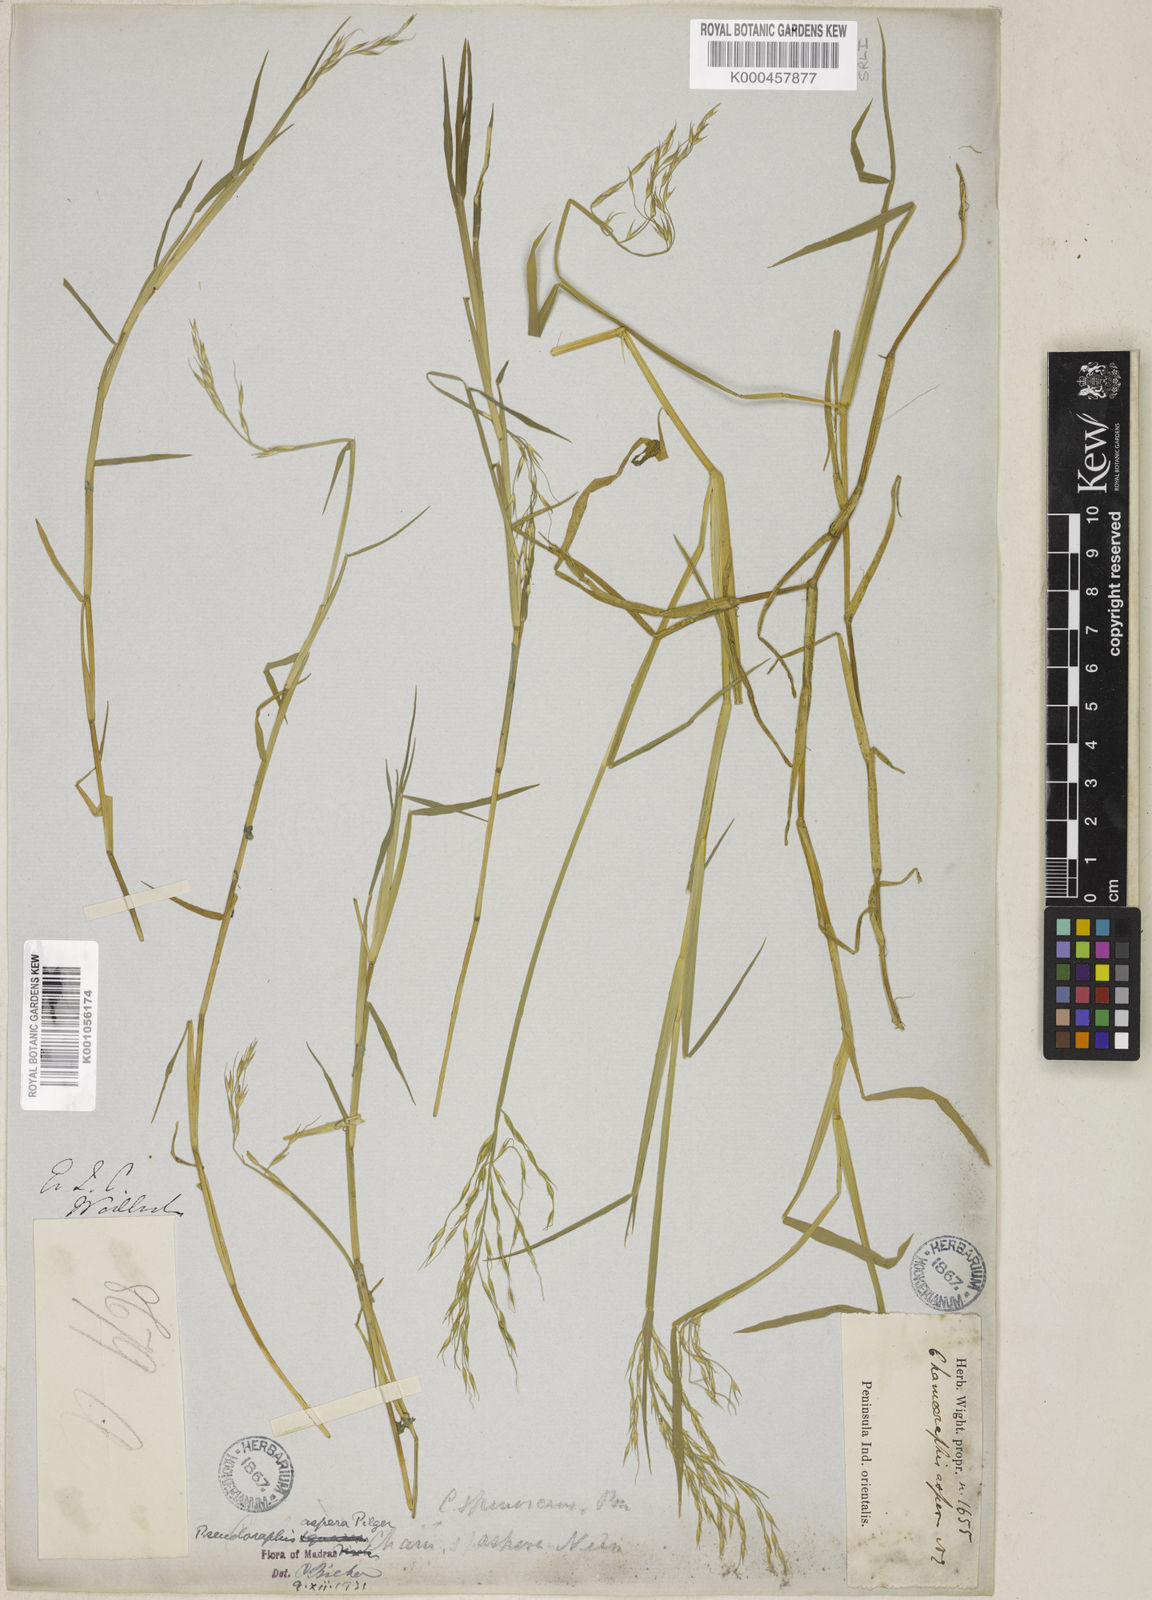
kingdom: Plantae
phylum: Tracheophyta
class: Liliopsida
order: Poales
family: Poaceae
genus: Pseudoraphis
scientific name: Pseudoraphis sordida
